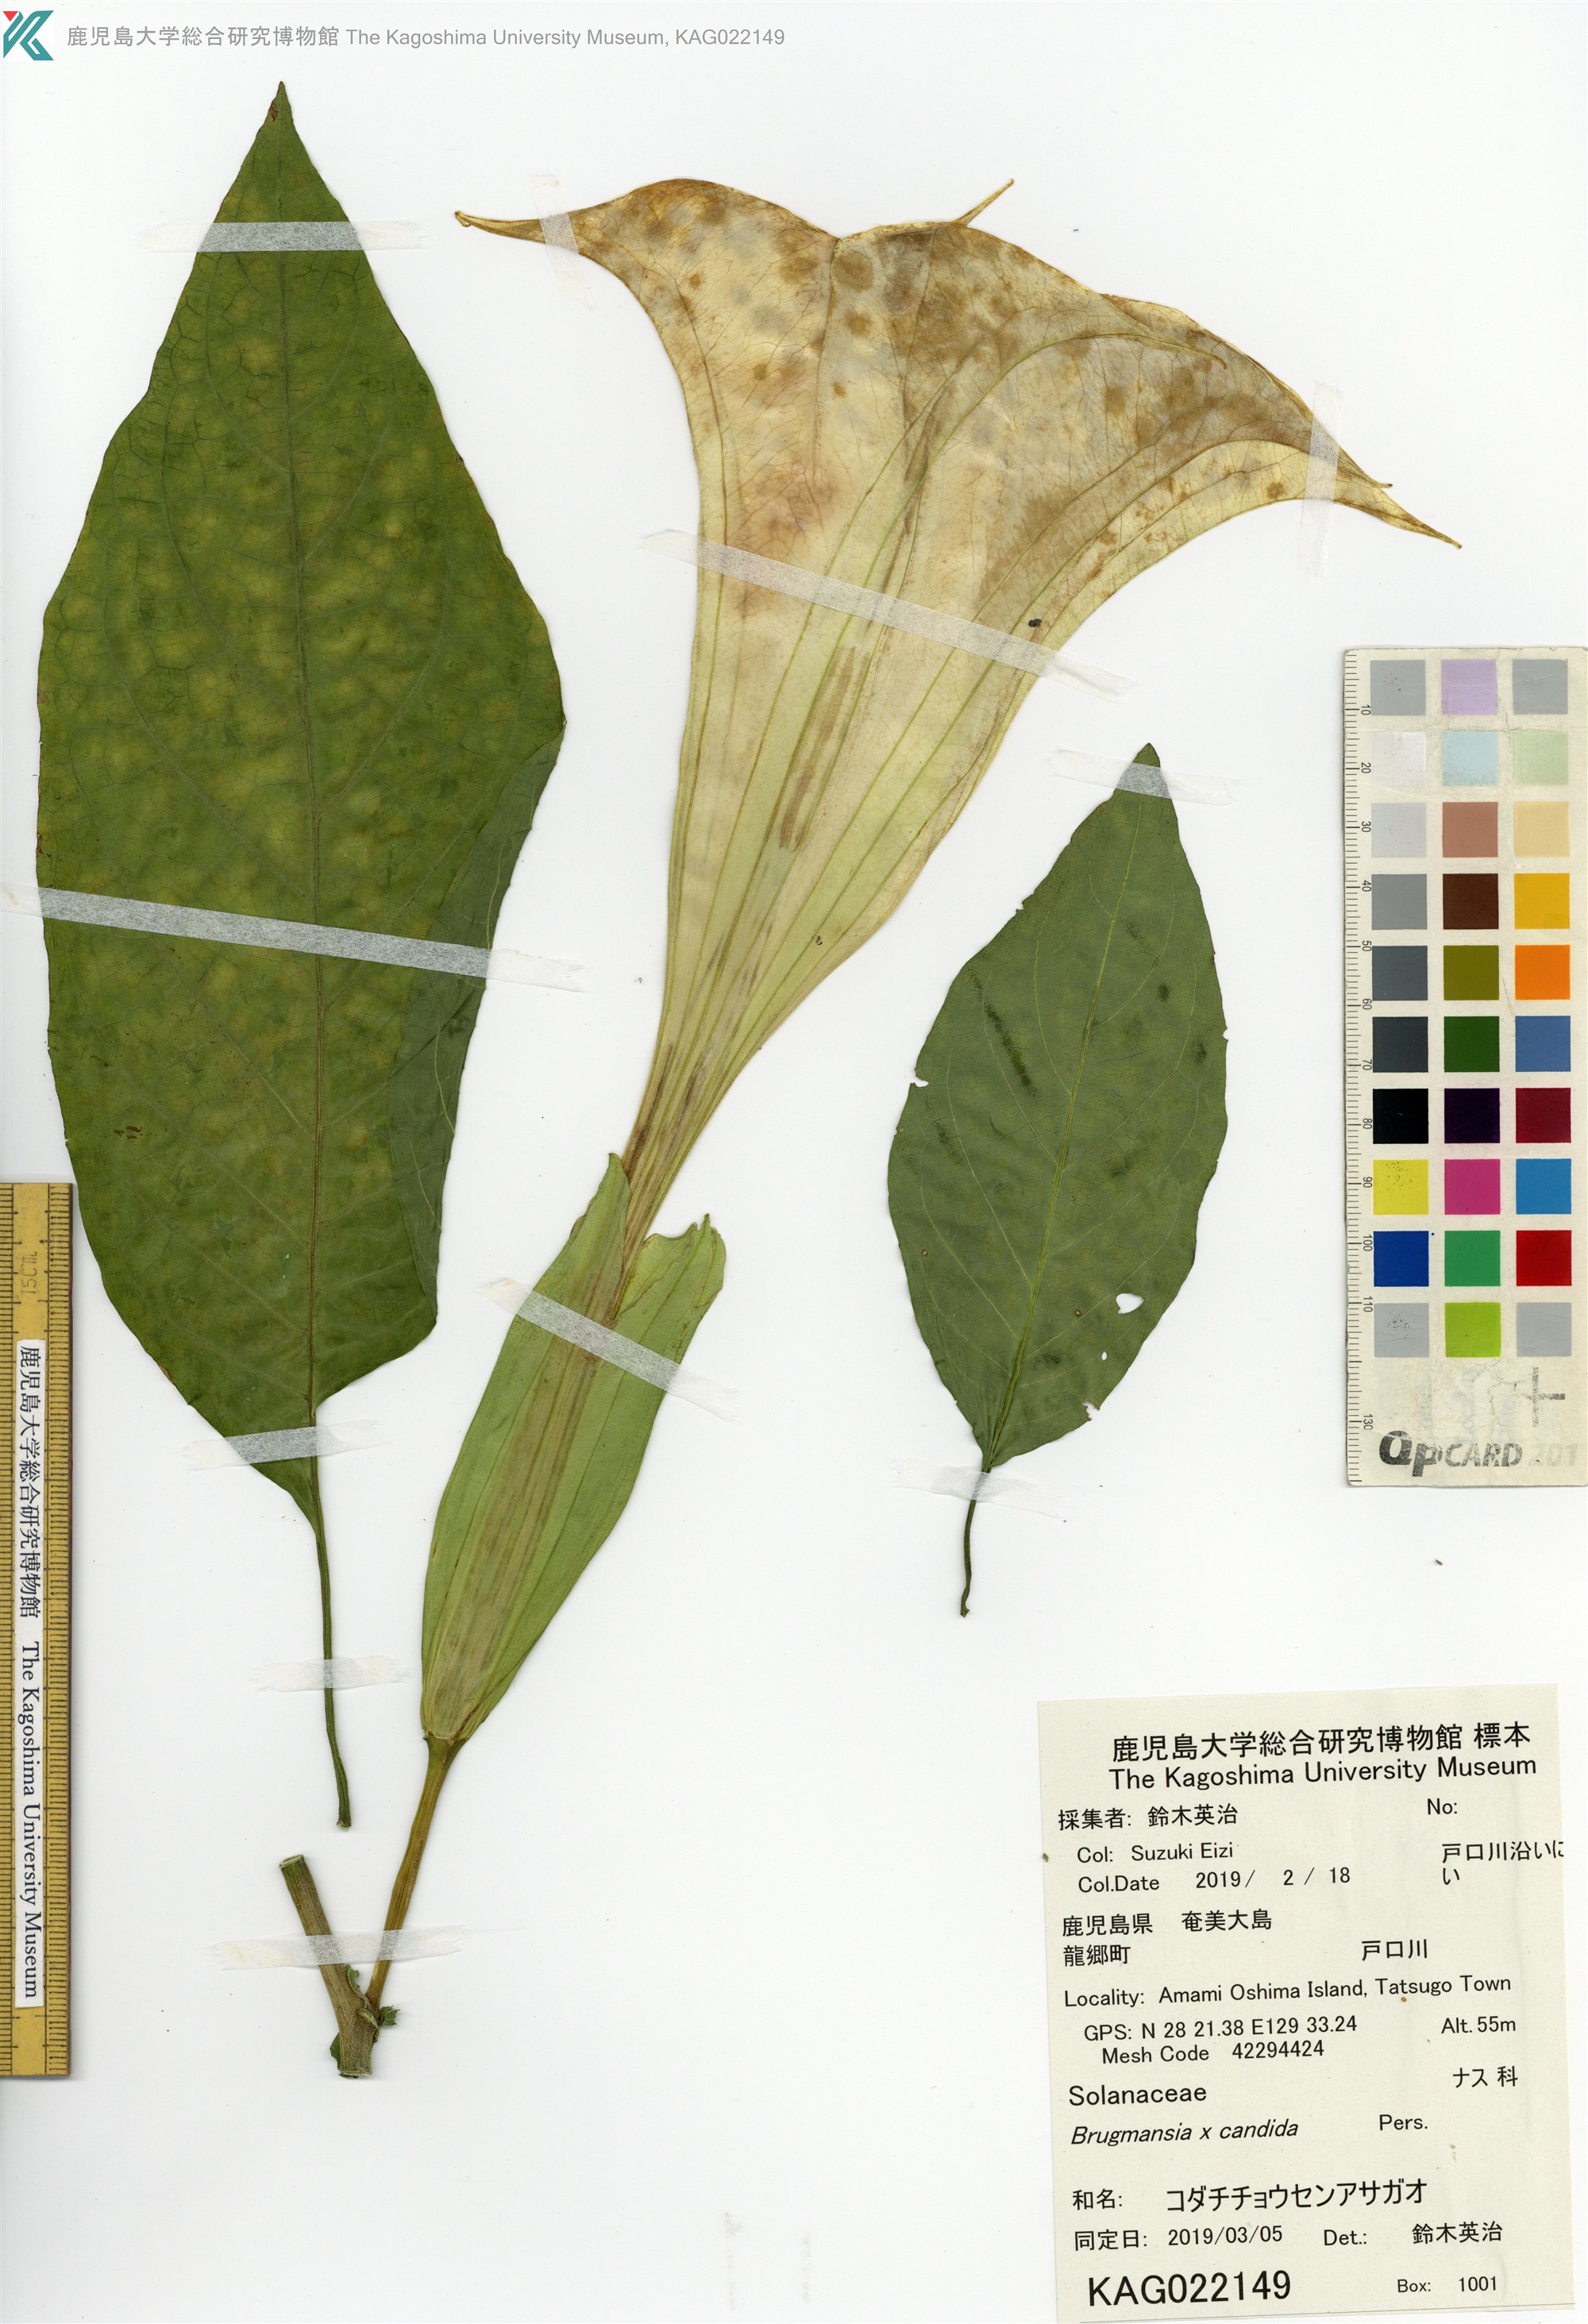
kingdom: Plantae
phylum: Tracheophyta
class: Magnoliopsida
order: Solanales
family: Solanaceae
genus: Brugmansia
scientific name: Brugmansia candida
